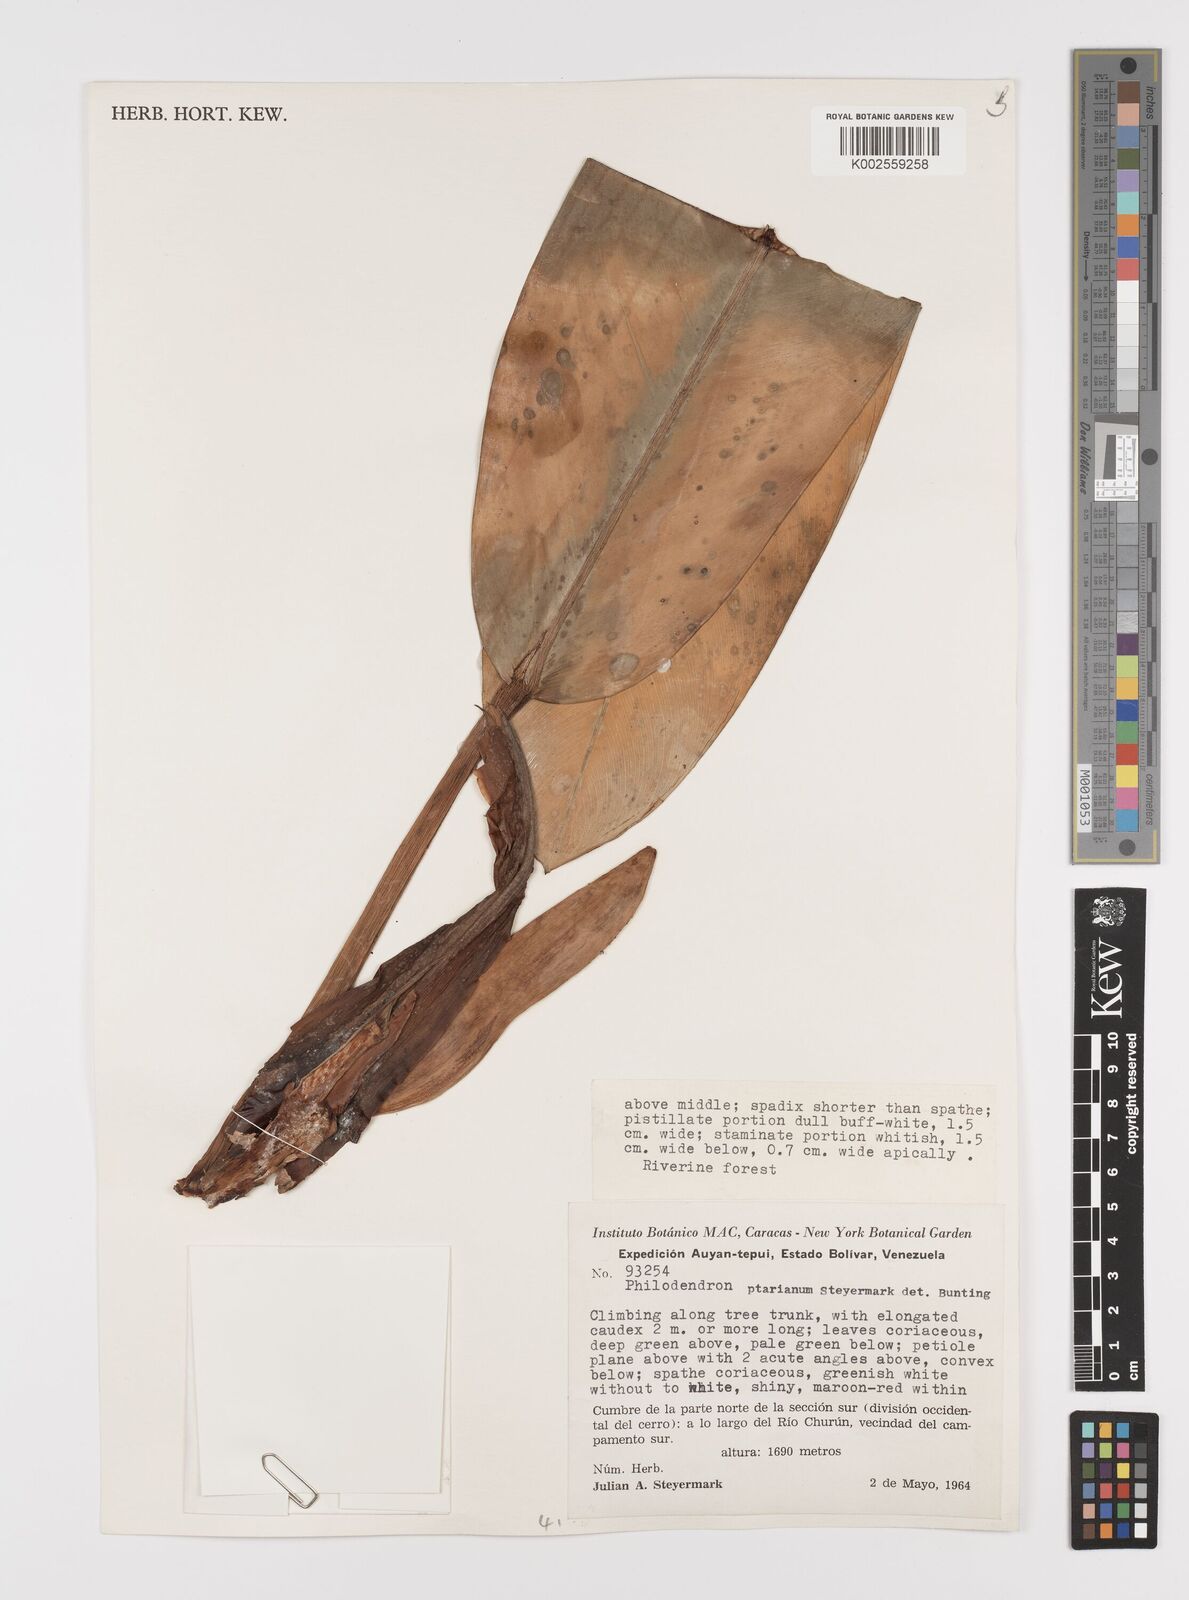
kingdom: Plantae
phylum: Tracheophyta
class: Liliopsida
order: Alismatales
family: Araceae
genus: Philodendron
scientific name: Philodendron callosum
